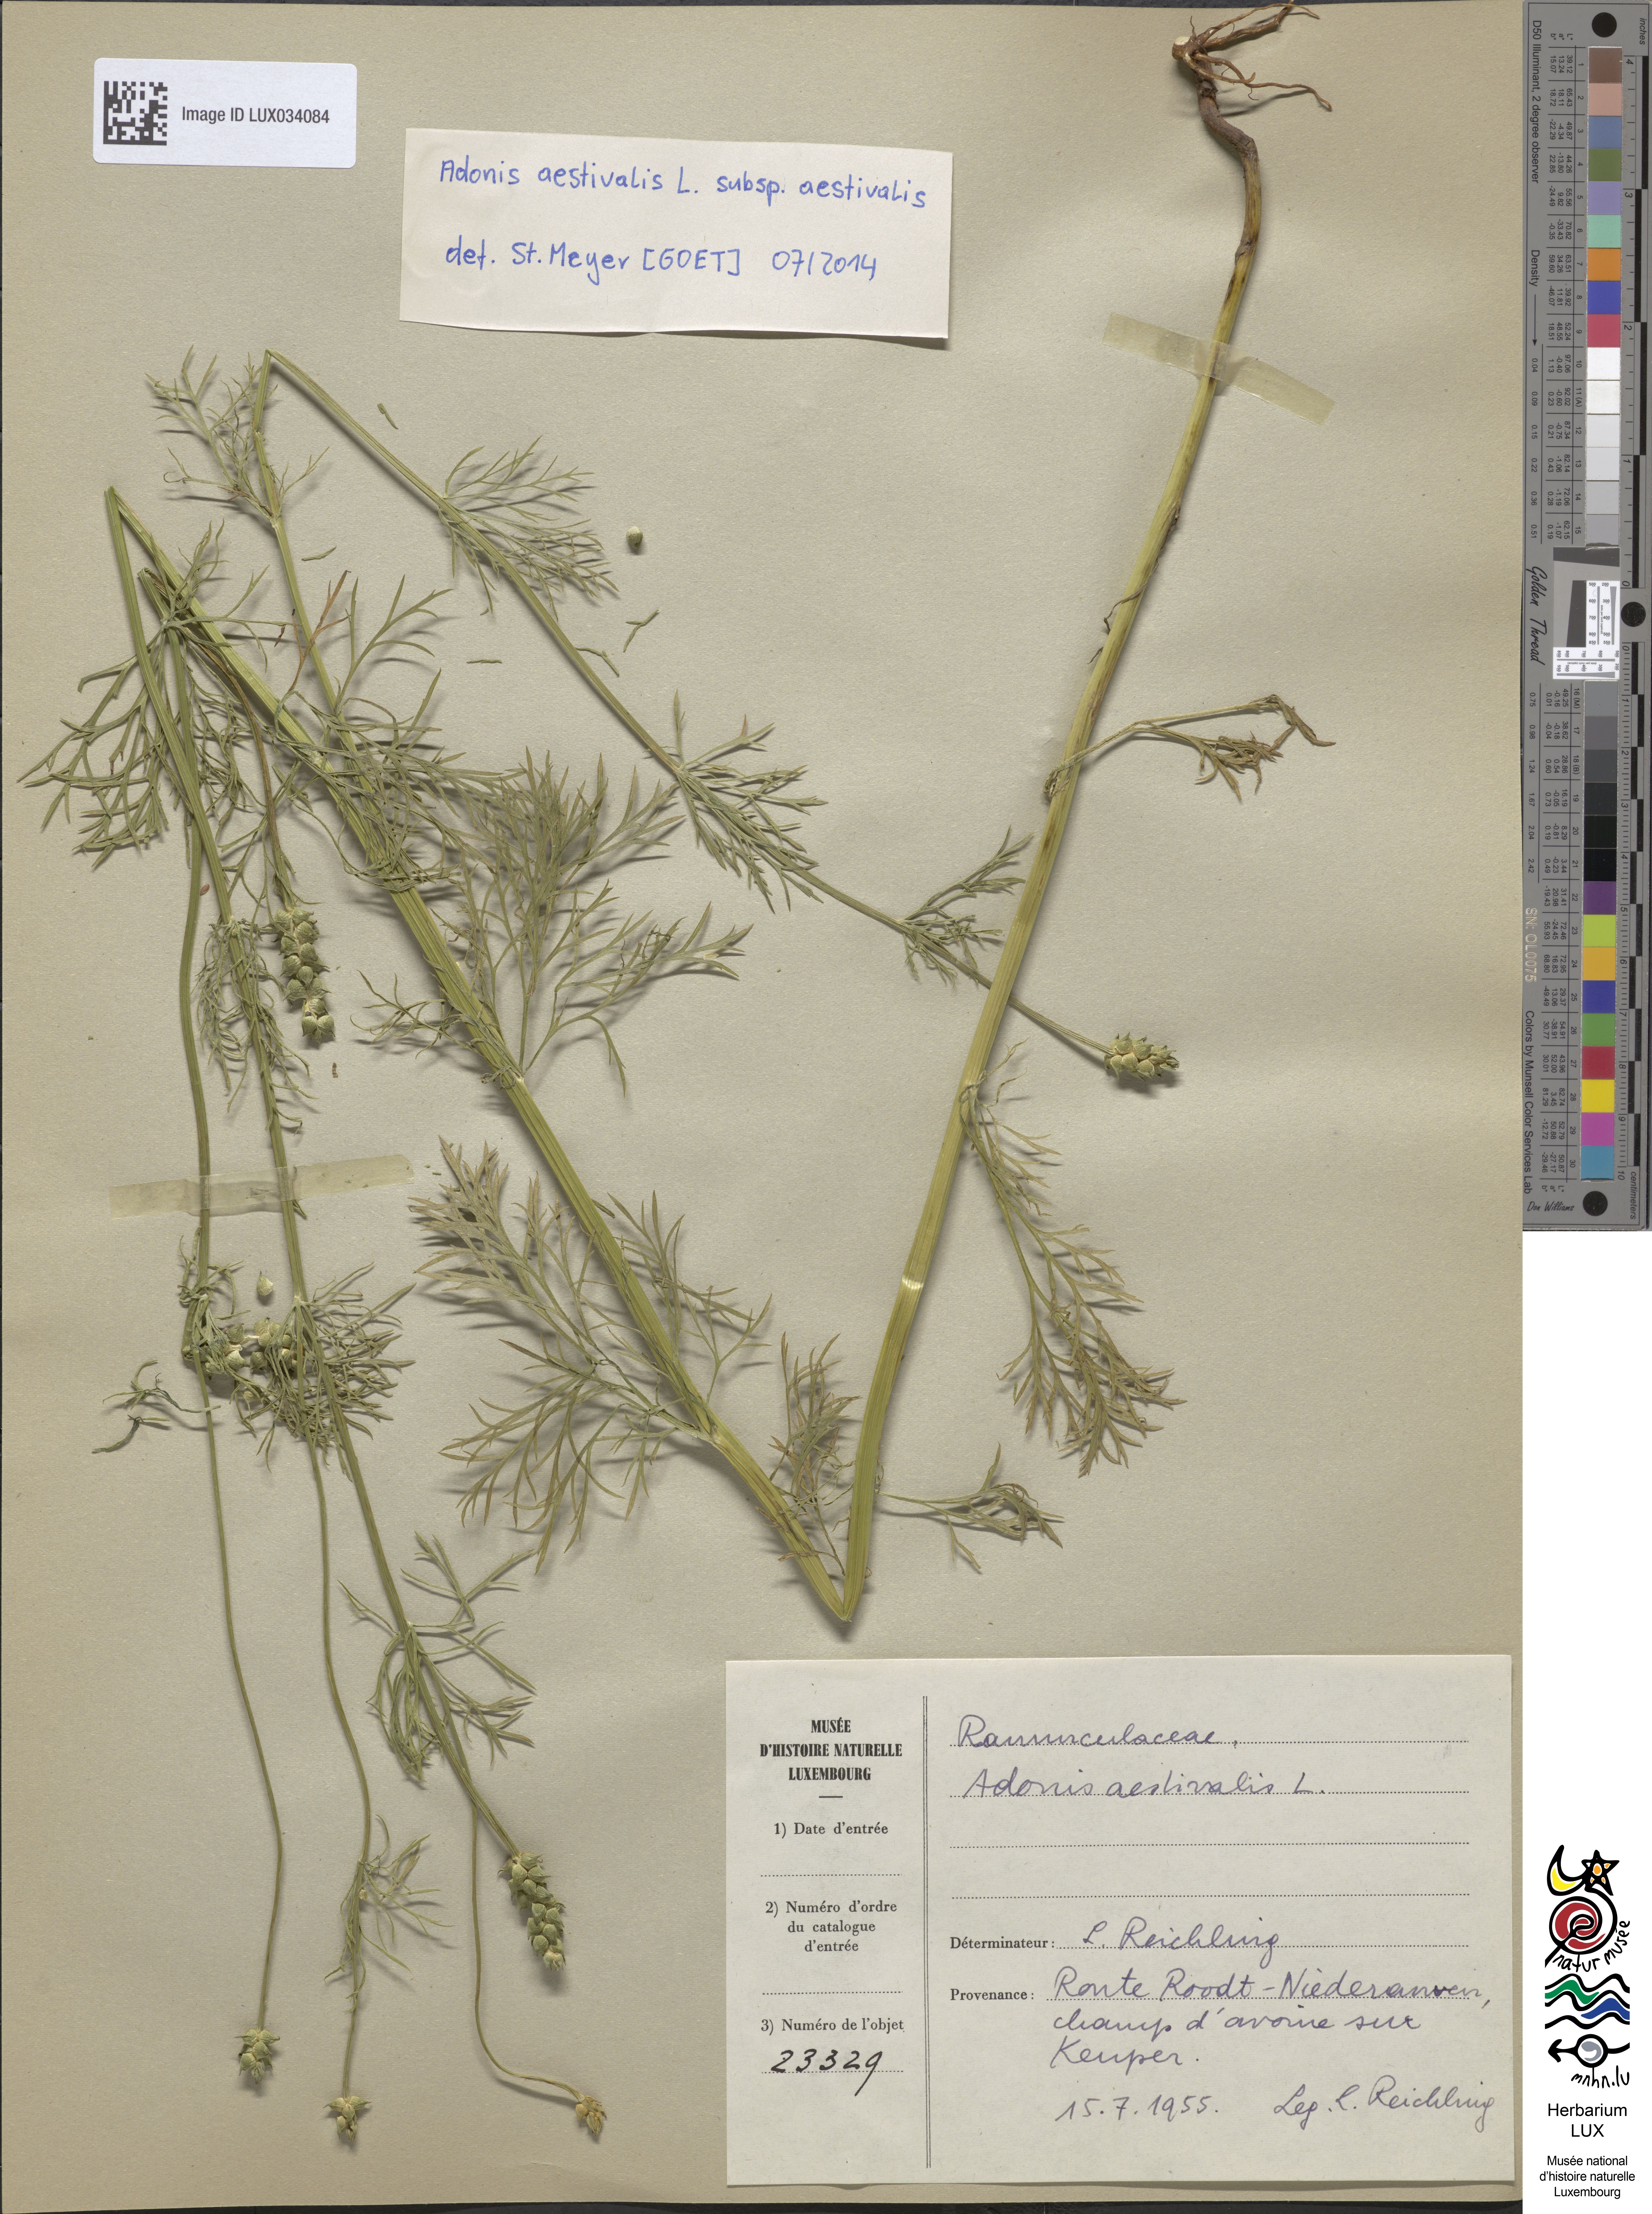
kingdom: Plantae
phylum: Tracheophyta
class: Magnoliopsida
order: Ranunculales
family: Ranunculaceae
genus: Adonis
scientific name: Adonis aestivalis
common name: Summer pheasant's-eye
